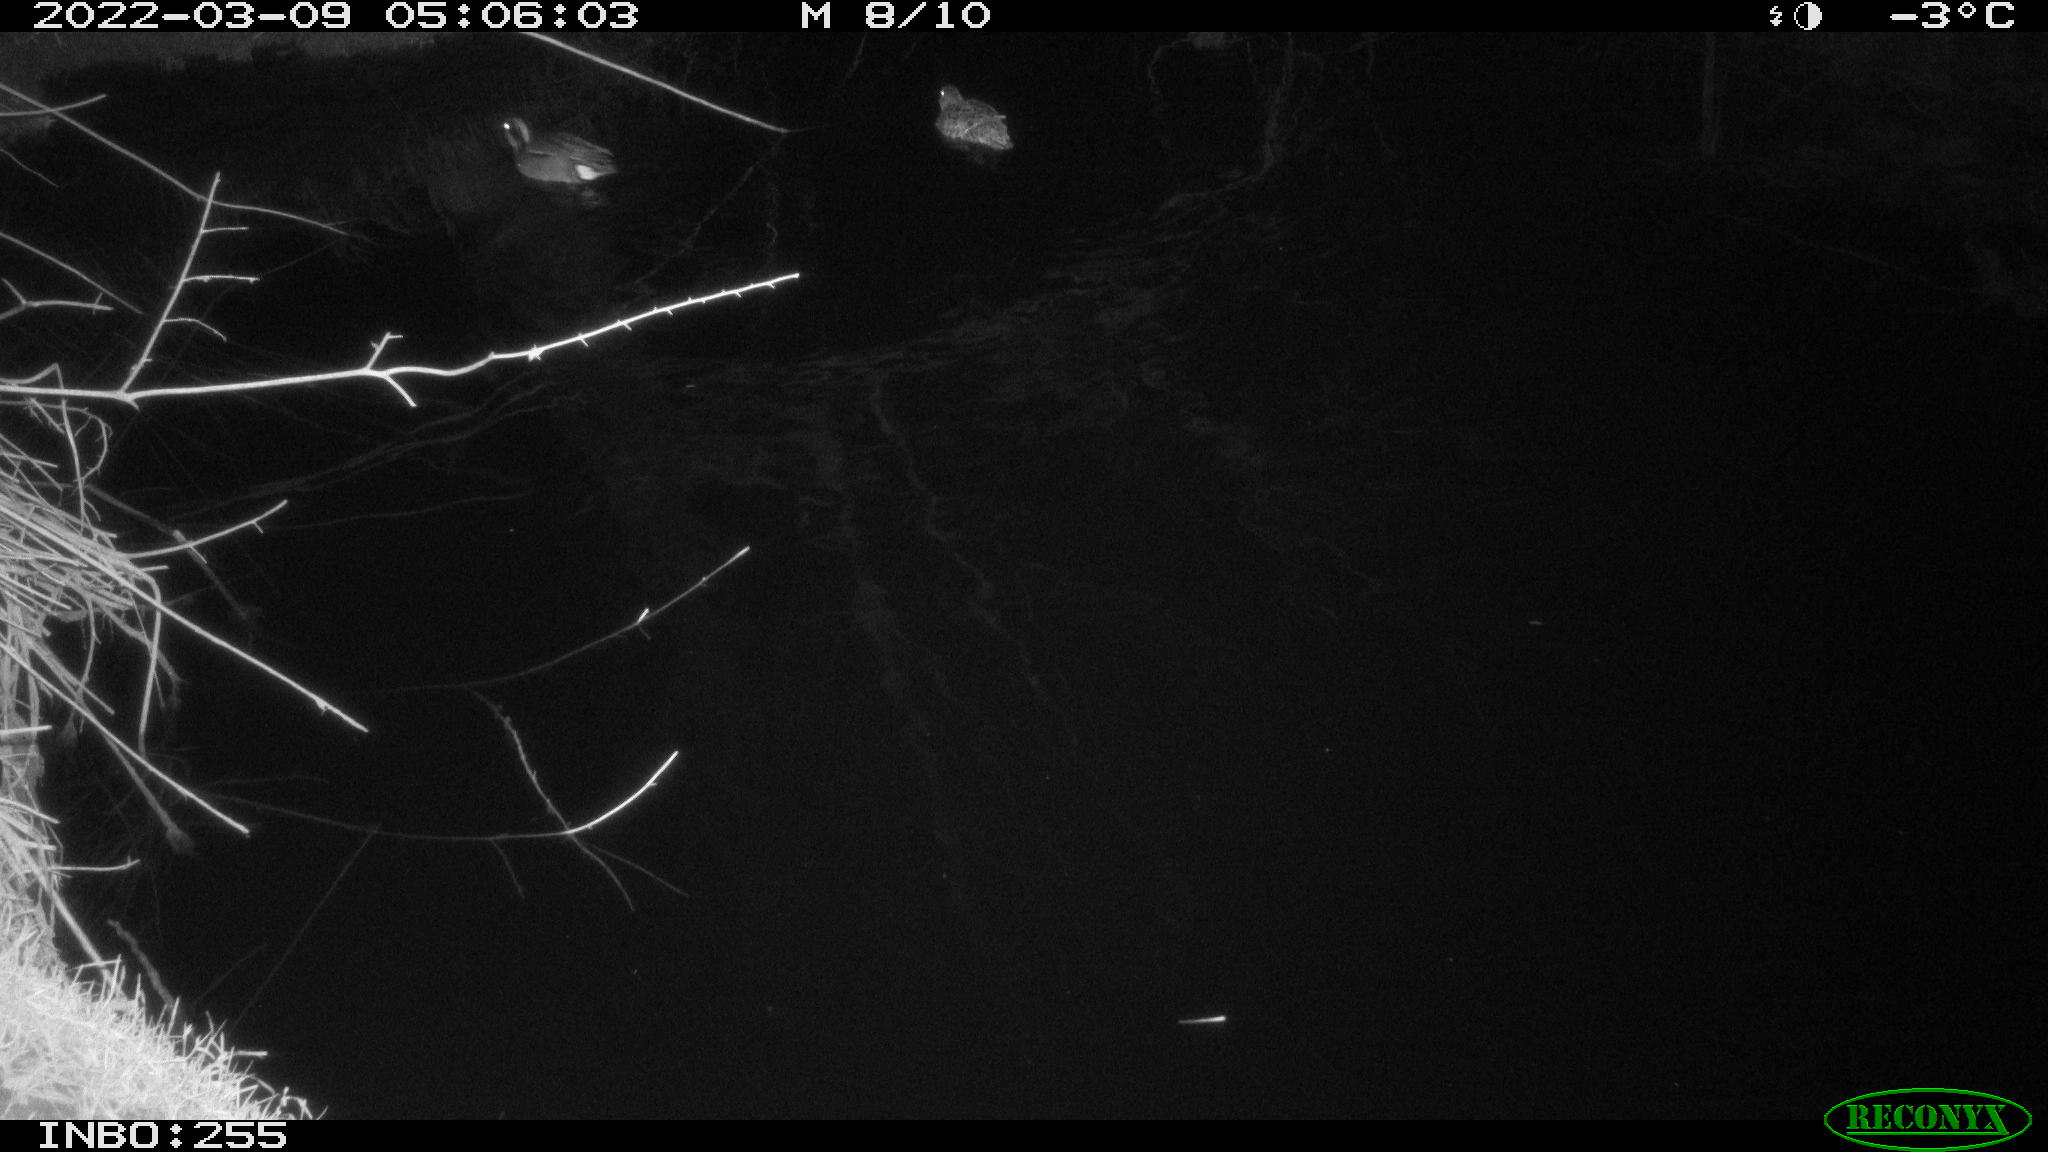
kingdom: Animalia
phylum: Chordata
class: Aves
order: Anseriformes
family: Anatidae
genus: Anas
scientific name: Anas crecca
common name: Eurasian teal
